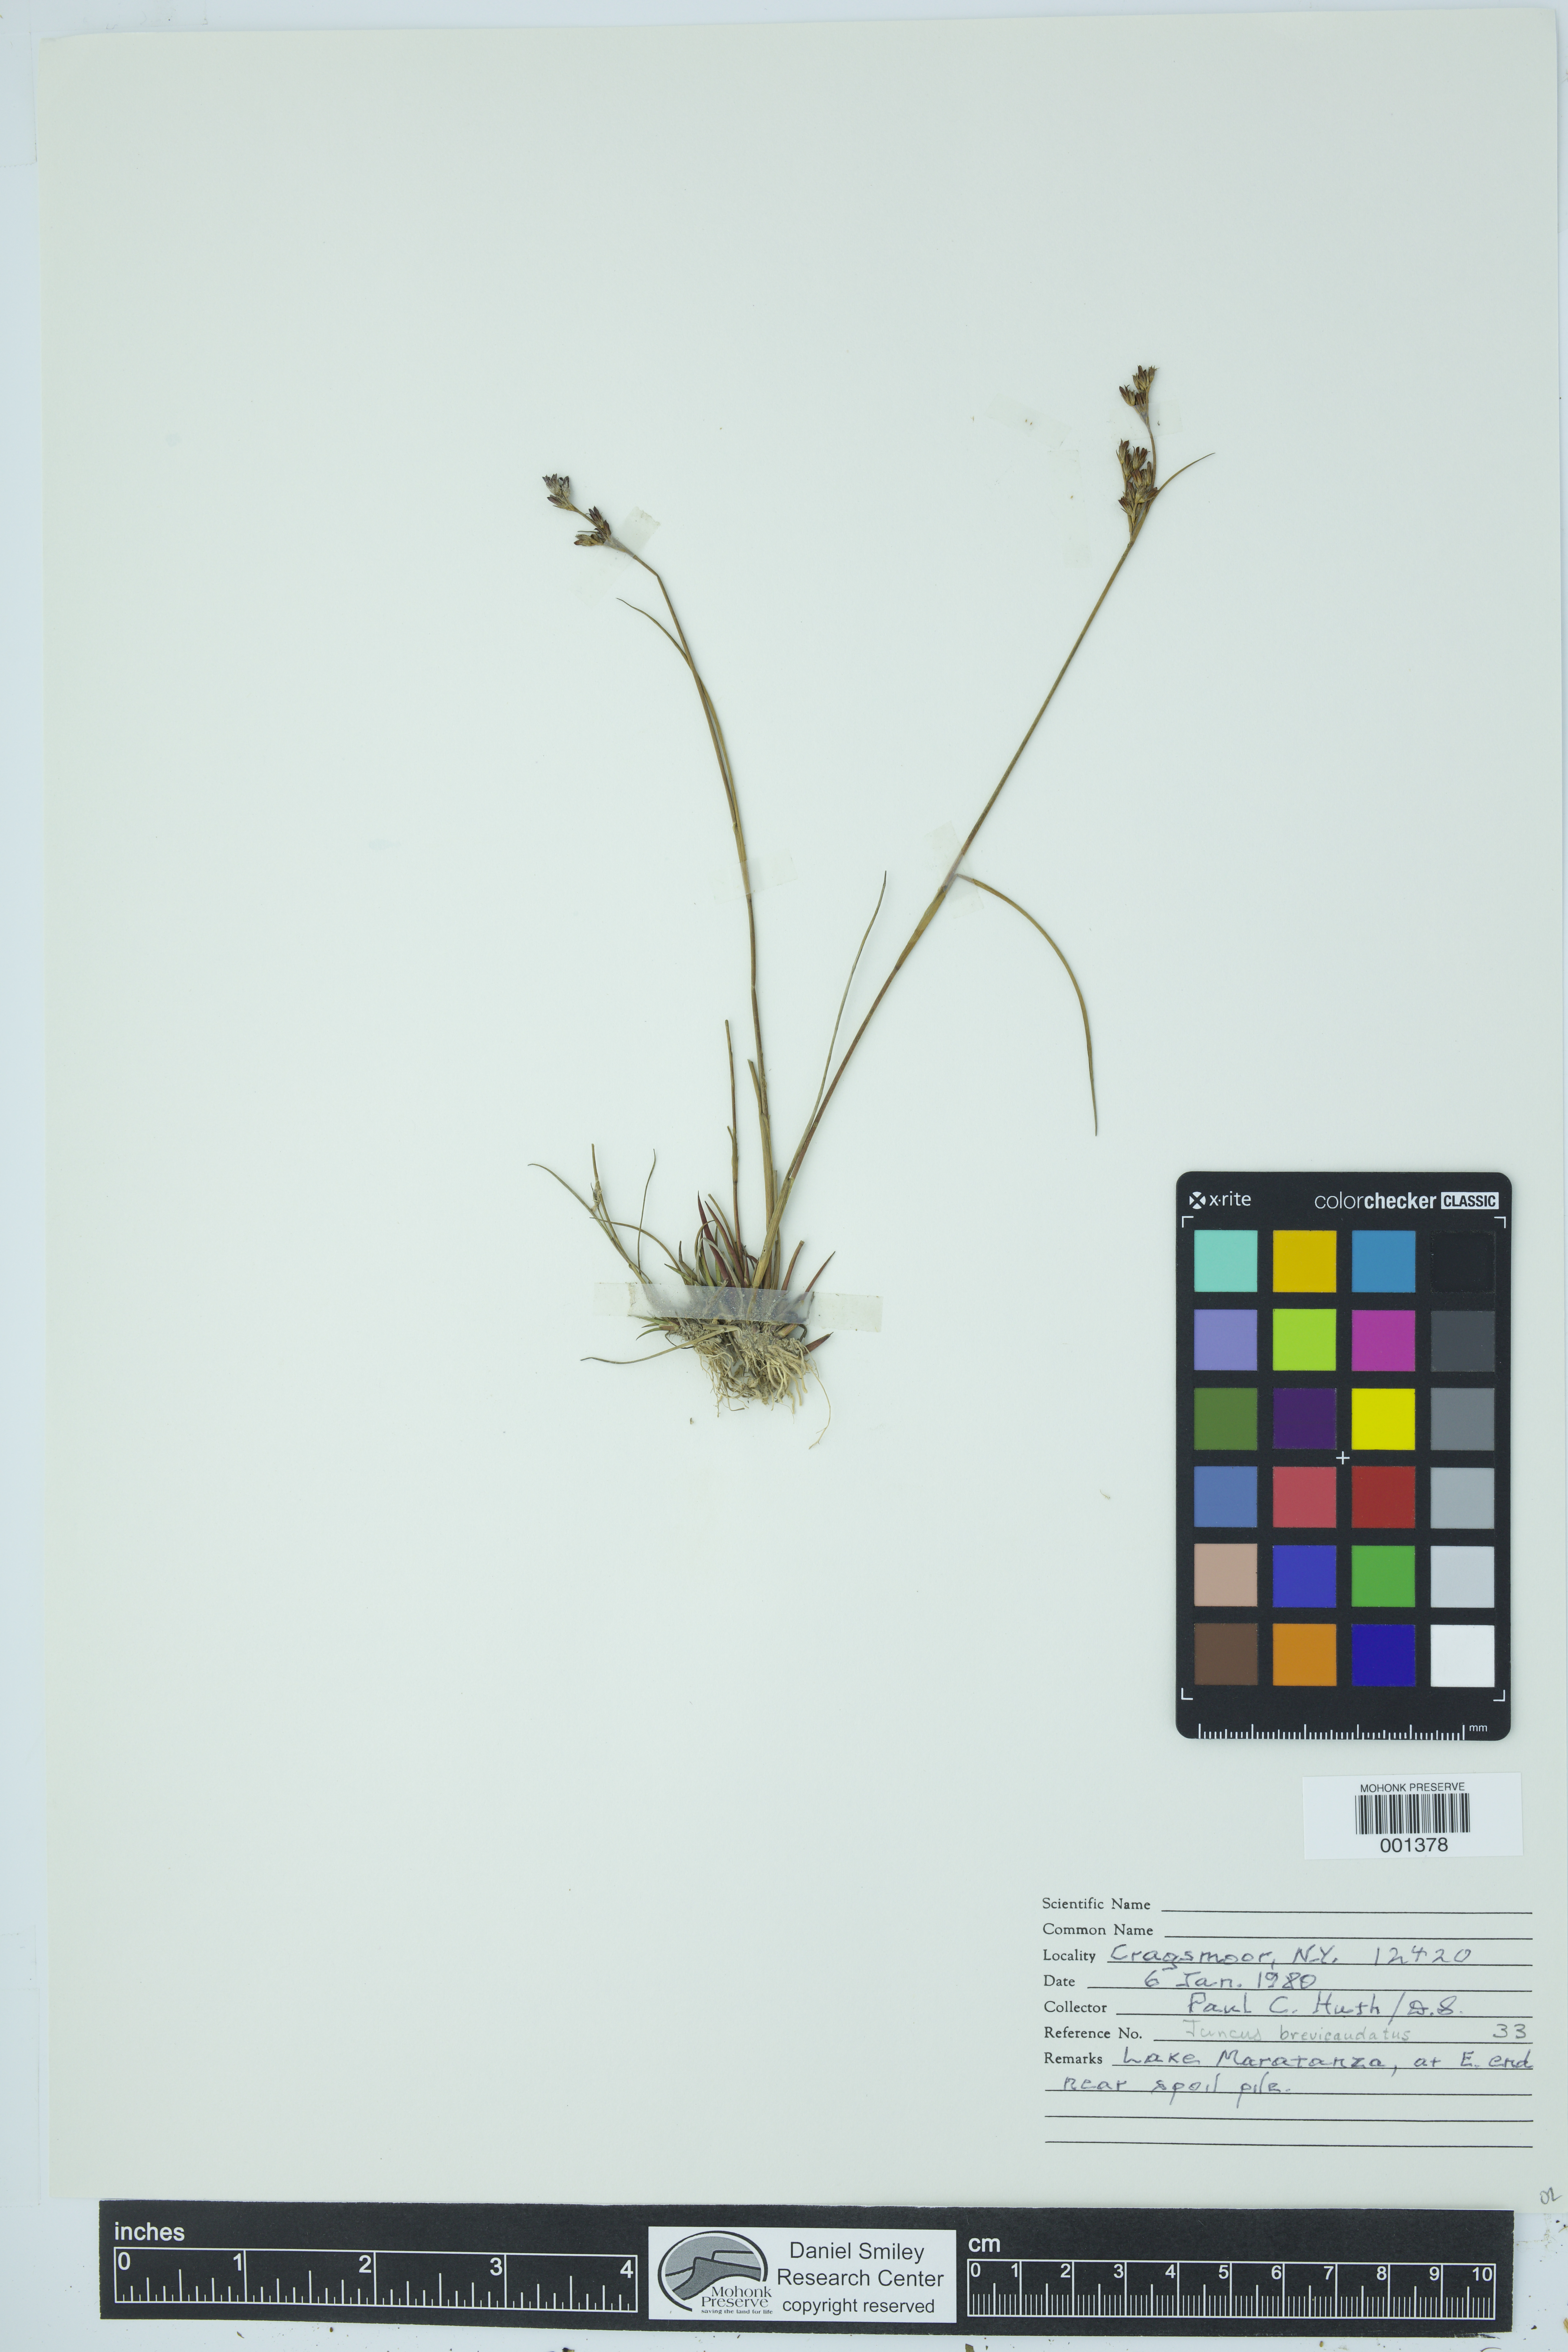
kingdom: Plantae
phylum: Tracheophyta
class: Liliopsida
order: Poales
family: Juncaceae
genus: Juncus
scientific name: Juncus brevicaudatus
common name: Narrow-panicle rush
